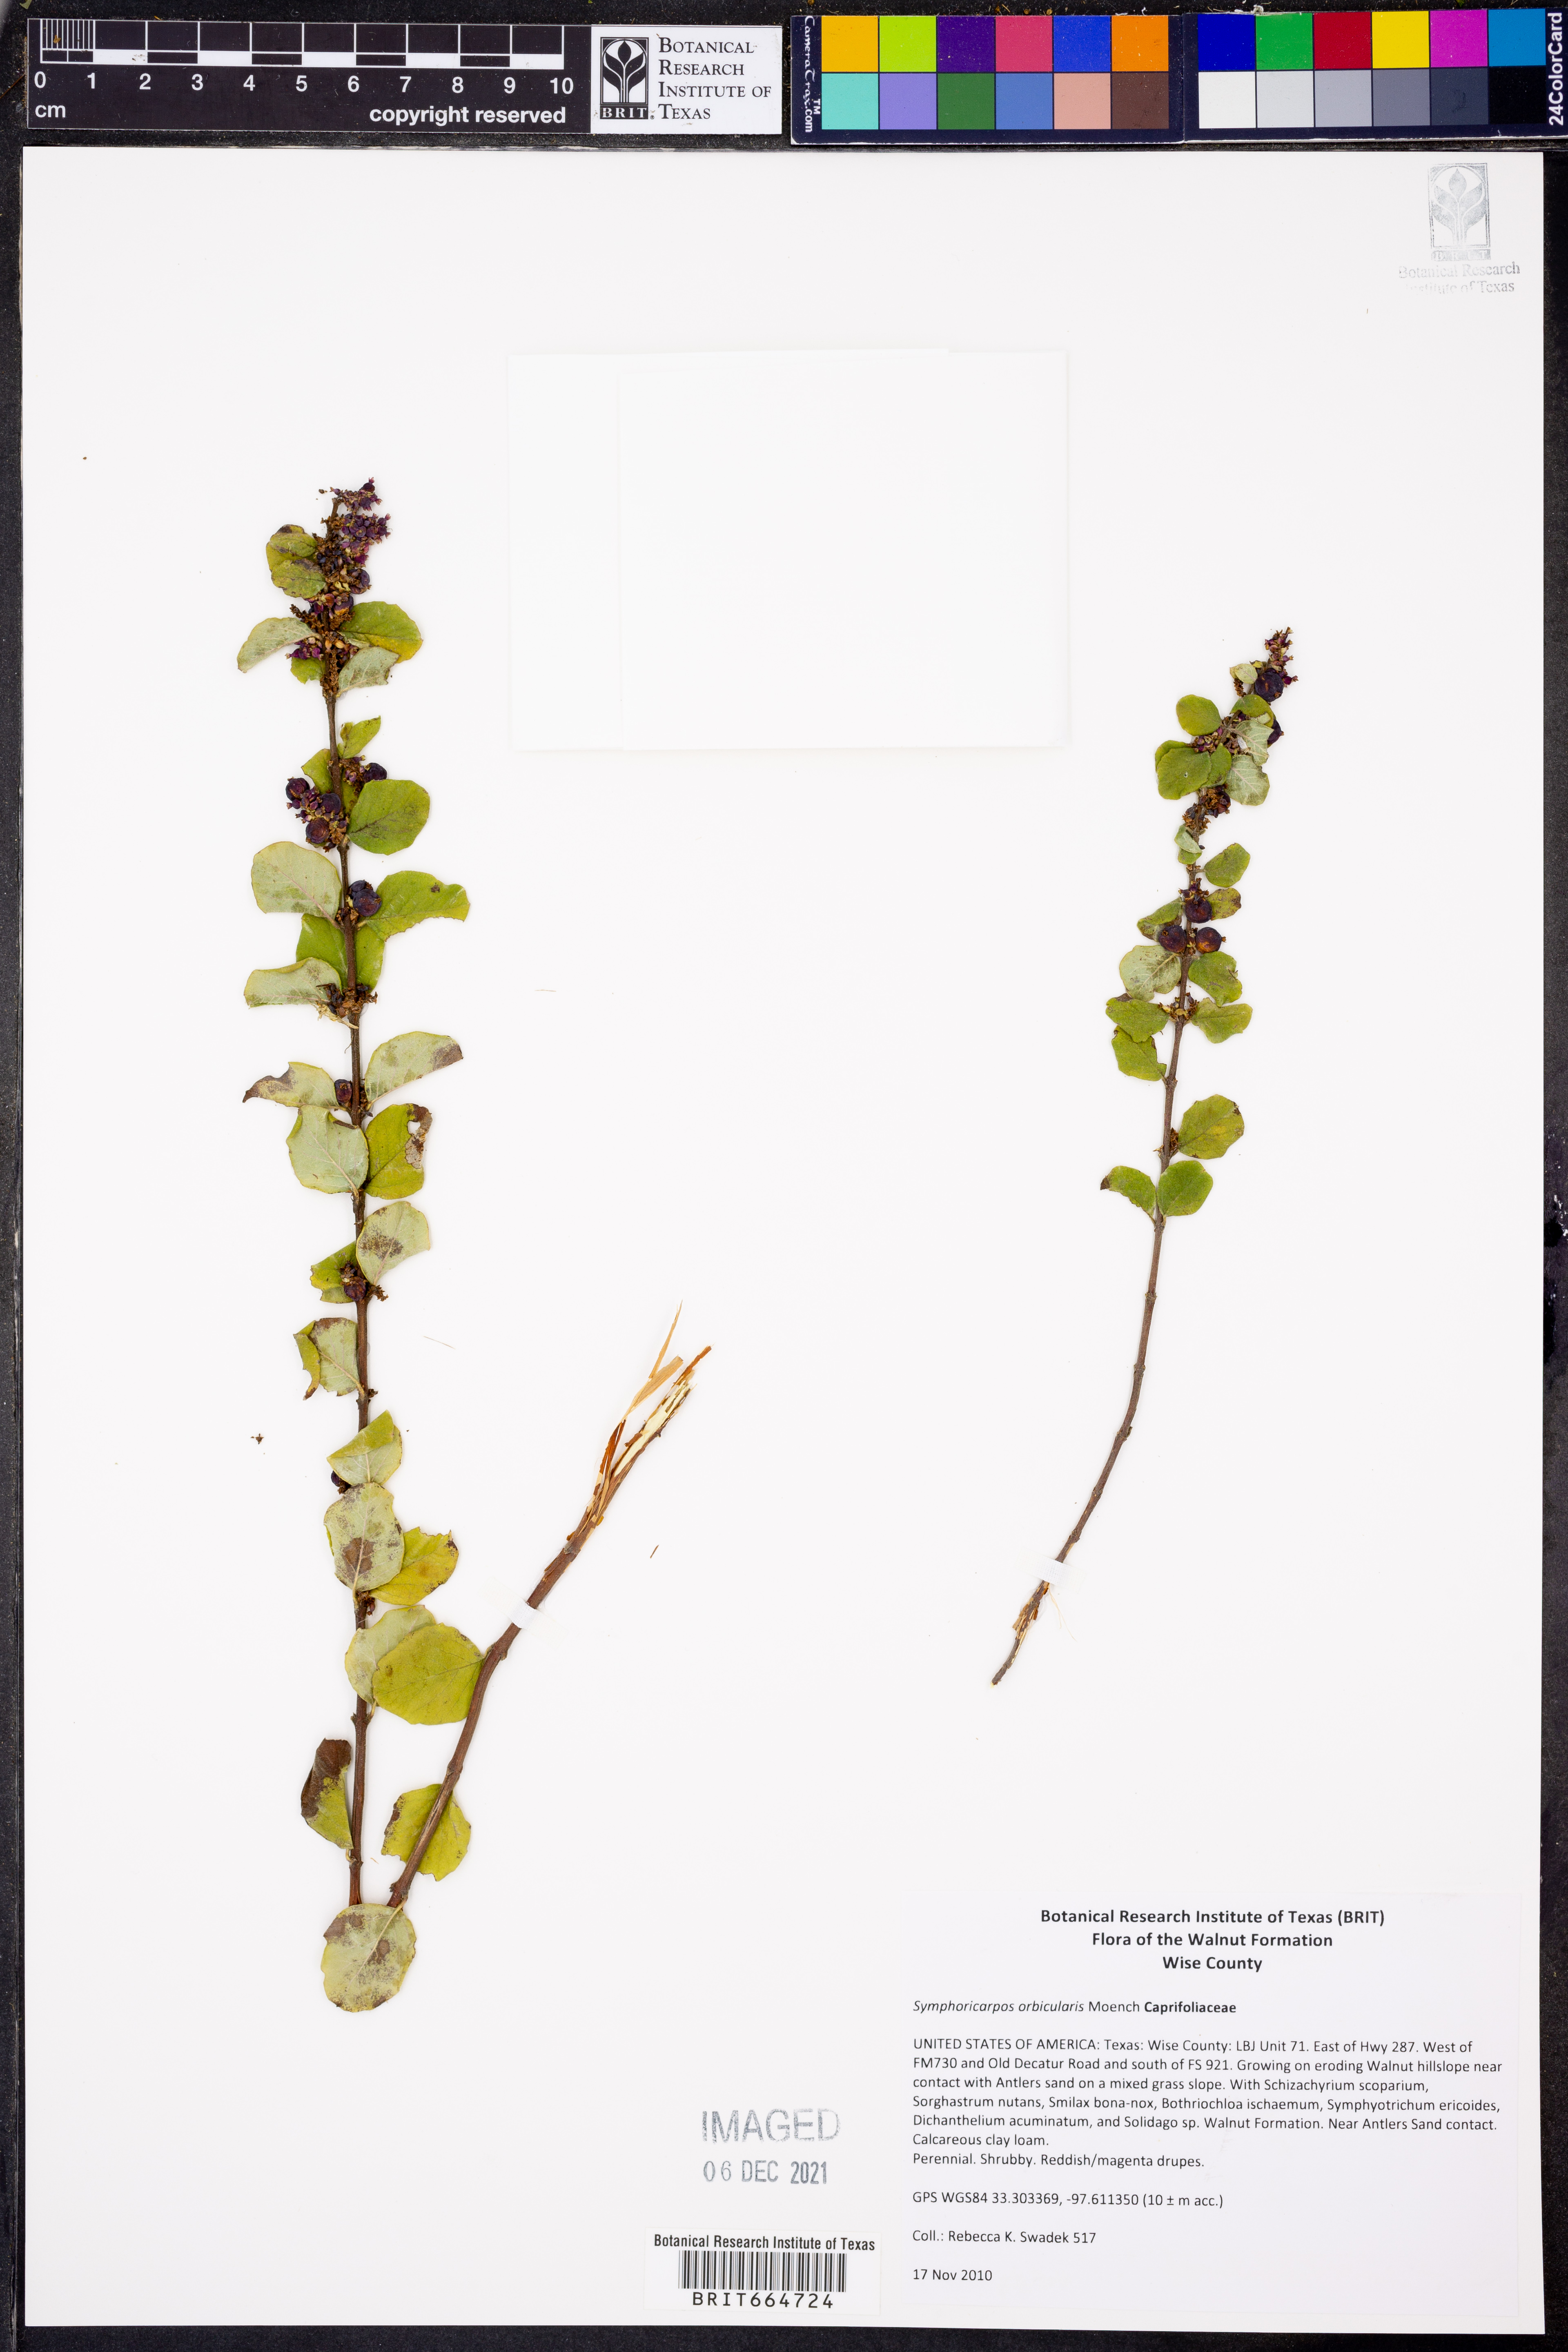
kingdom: Plantae
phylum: Tracheophyta
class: Magnoliopsida
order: Dipsacales
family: Caprifoliaceae
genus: Symphoricarpos
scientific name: Symphoricarpos orbiculatus
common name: Coralberry
